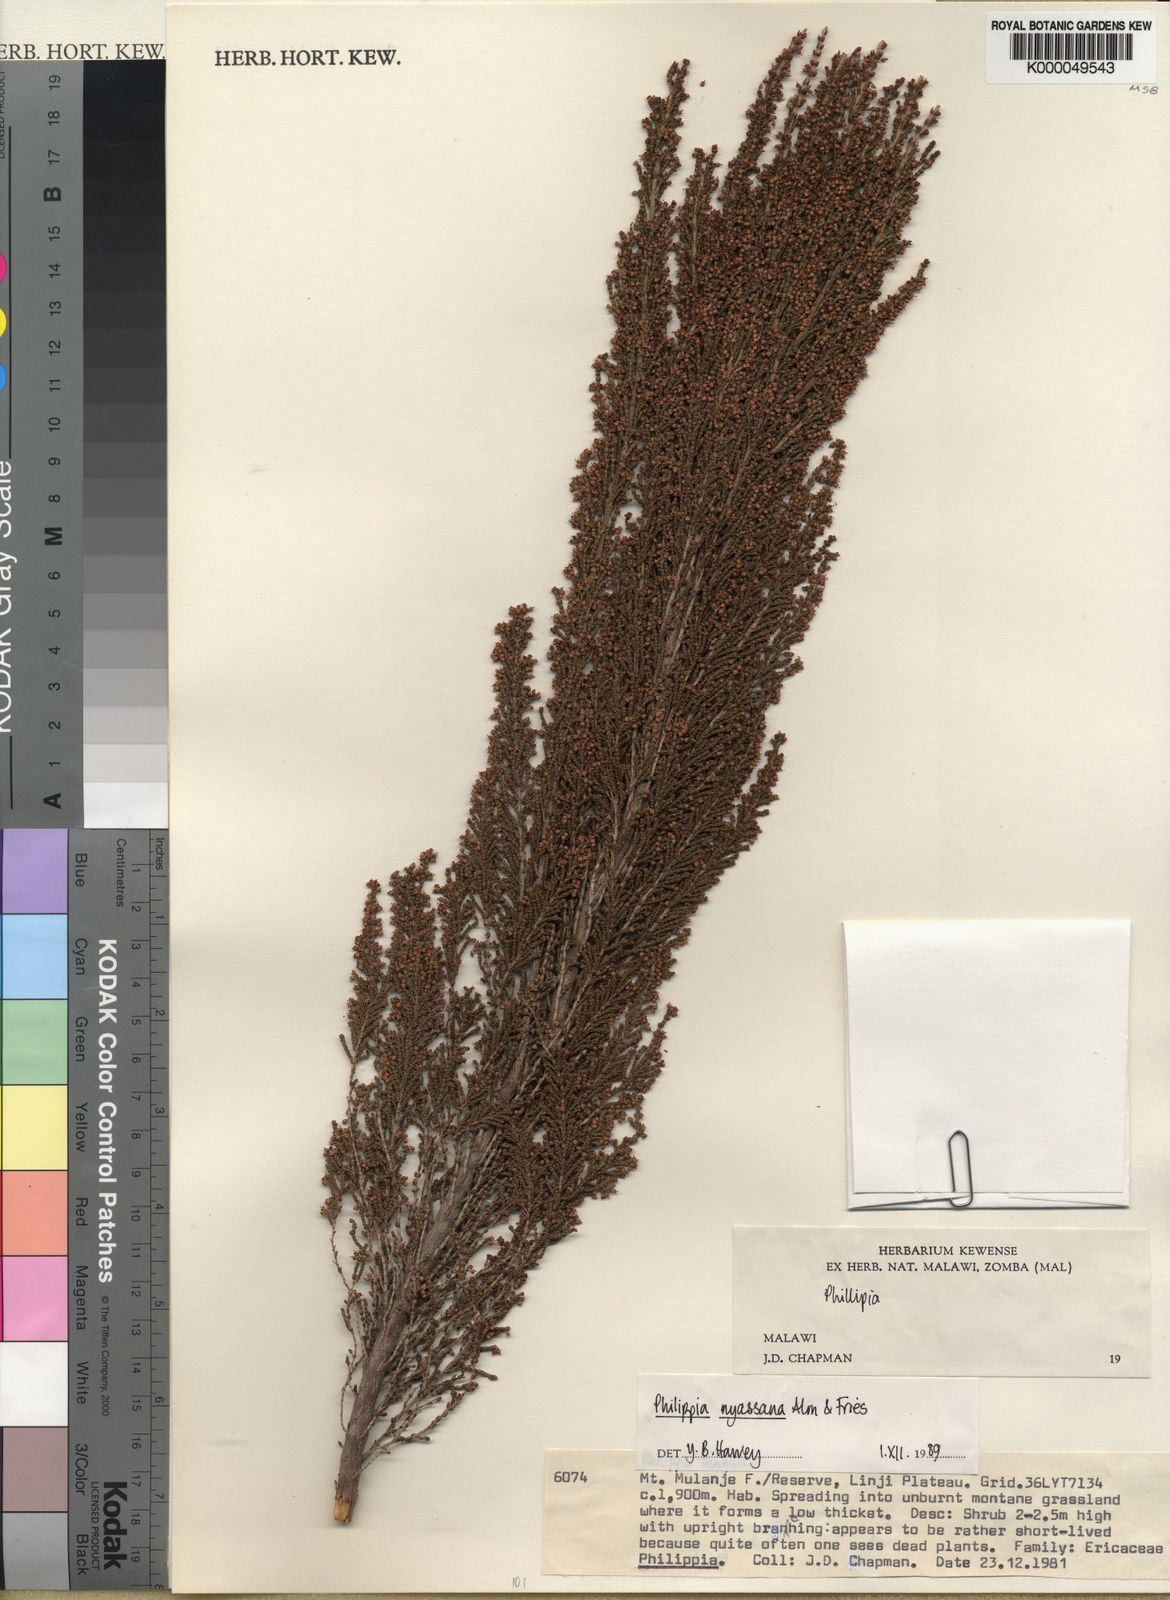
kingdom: Plantae
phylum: Tracheophyta
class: Magnoliopsida
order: Ericales
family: Ericaceae
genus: Erica
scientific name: Erica nyassana
